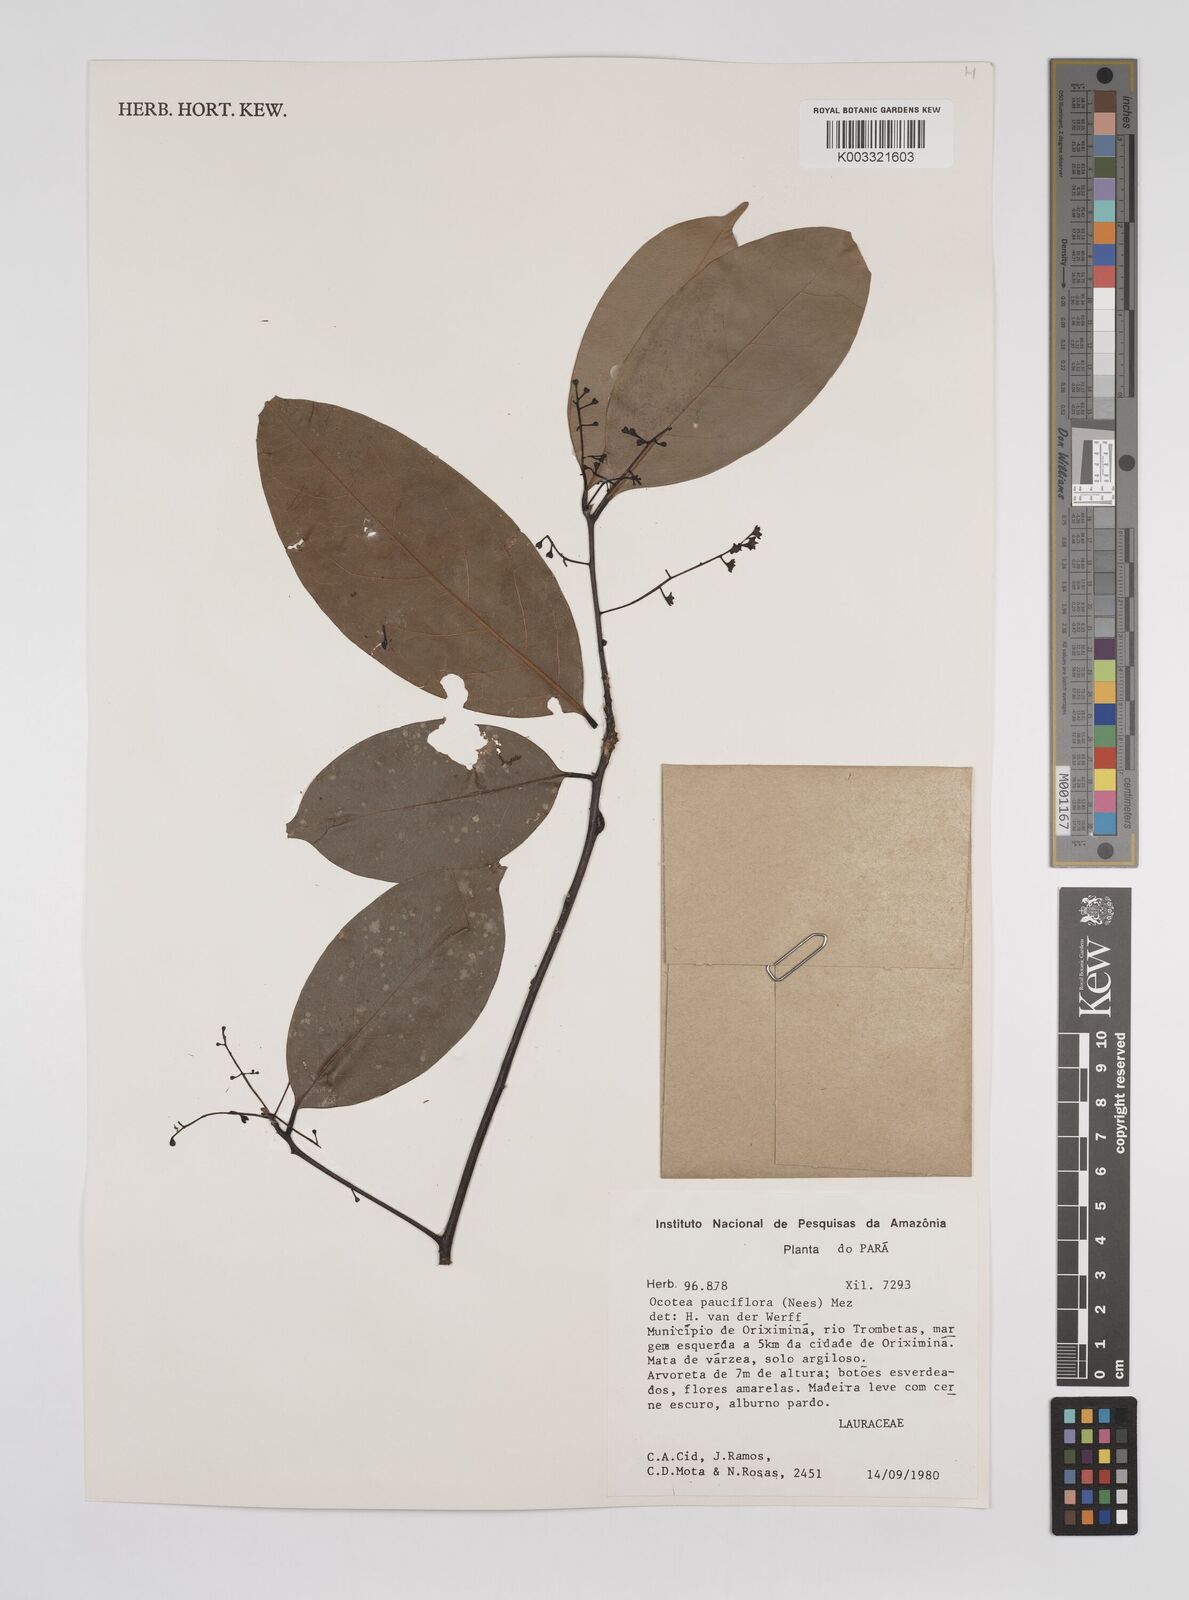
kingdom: Plantae
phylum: Tracheophyta
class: Magnoliopsida
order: Laurales
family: Lauraceae
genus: Ocotea
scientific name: Ocotea pauciflora
